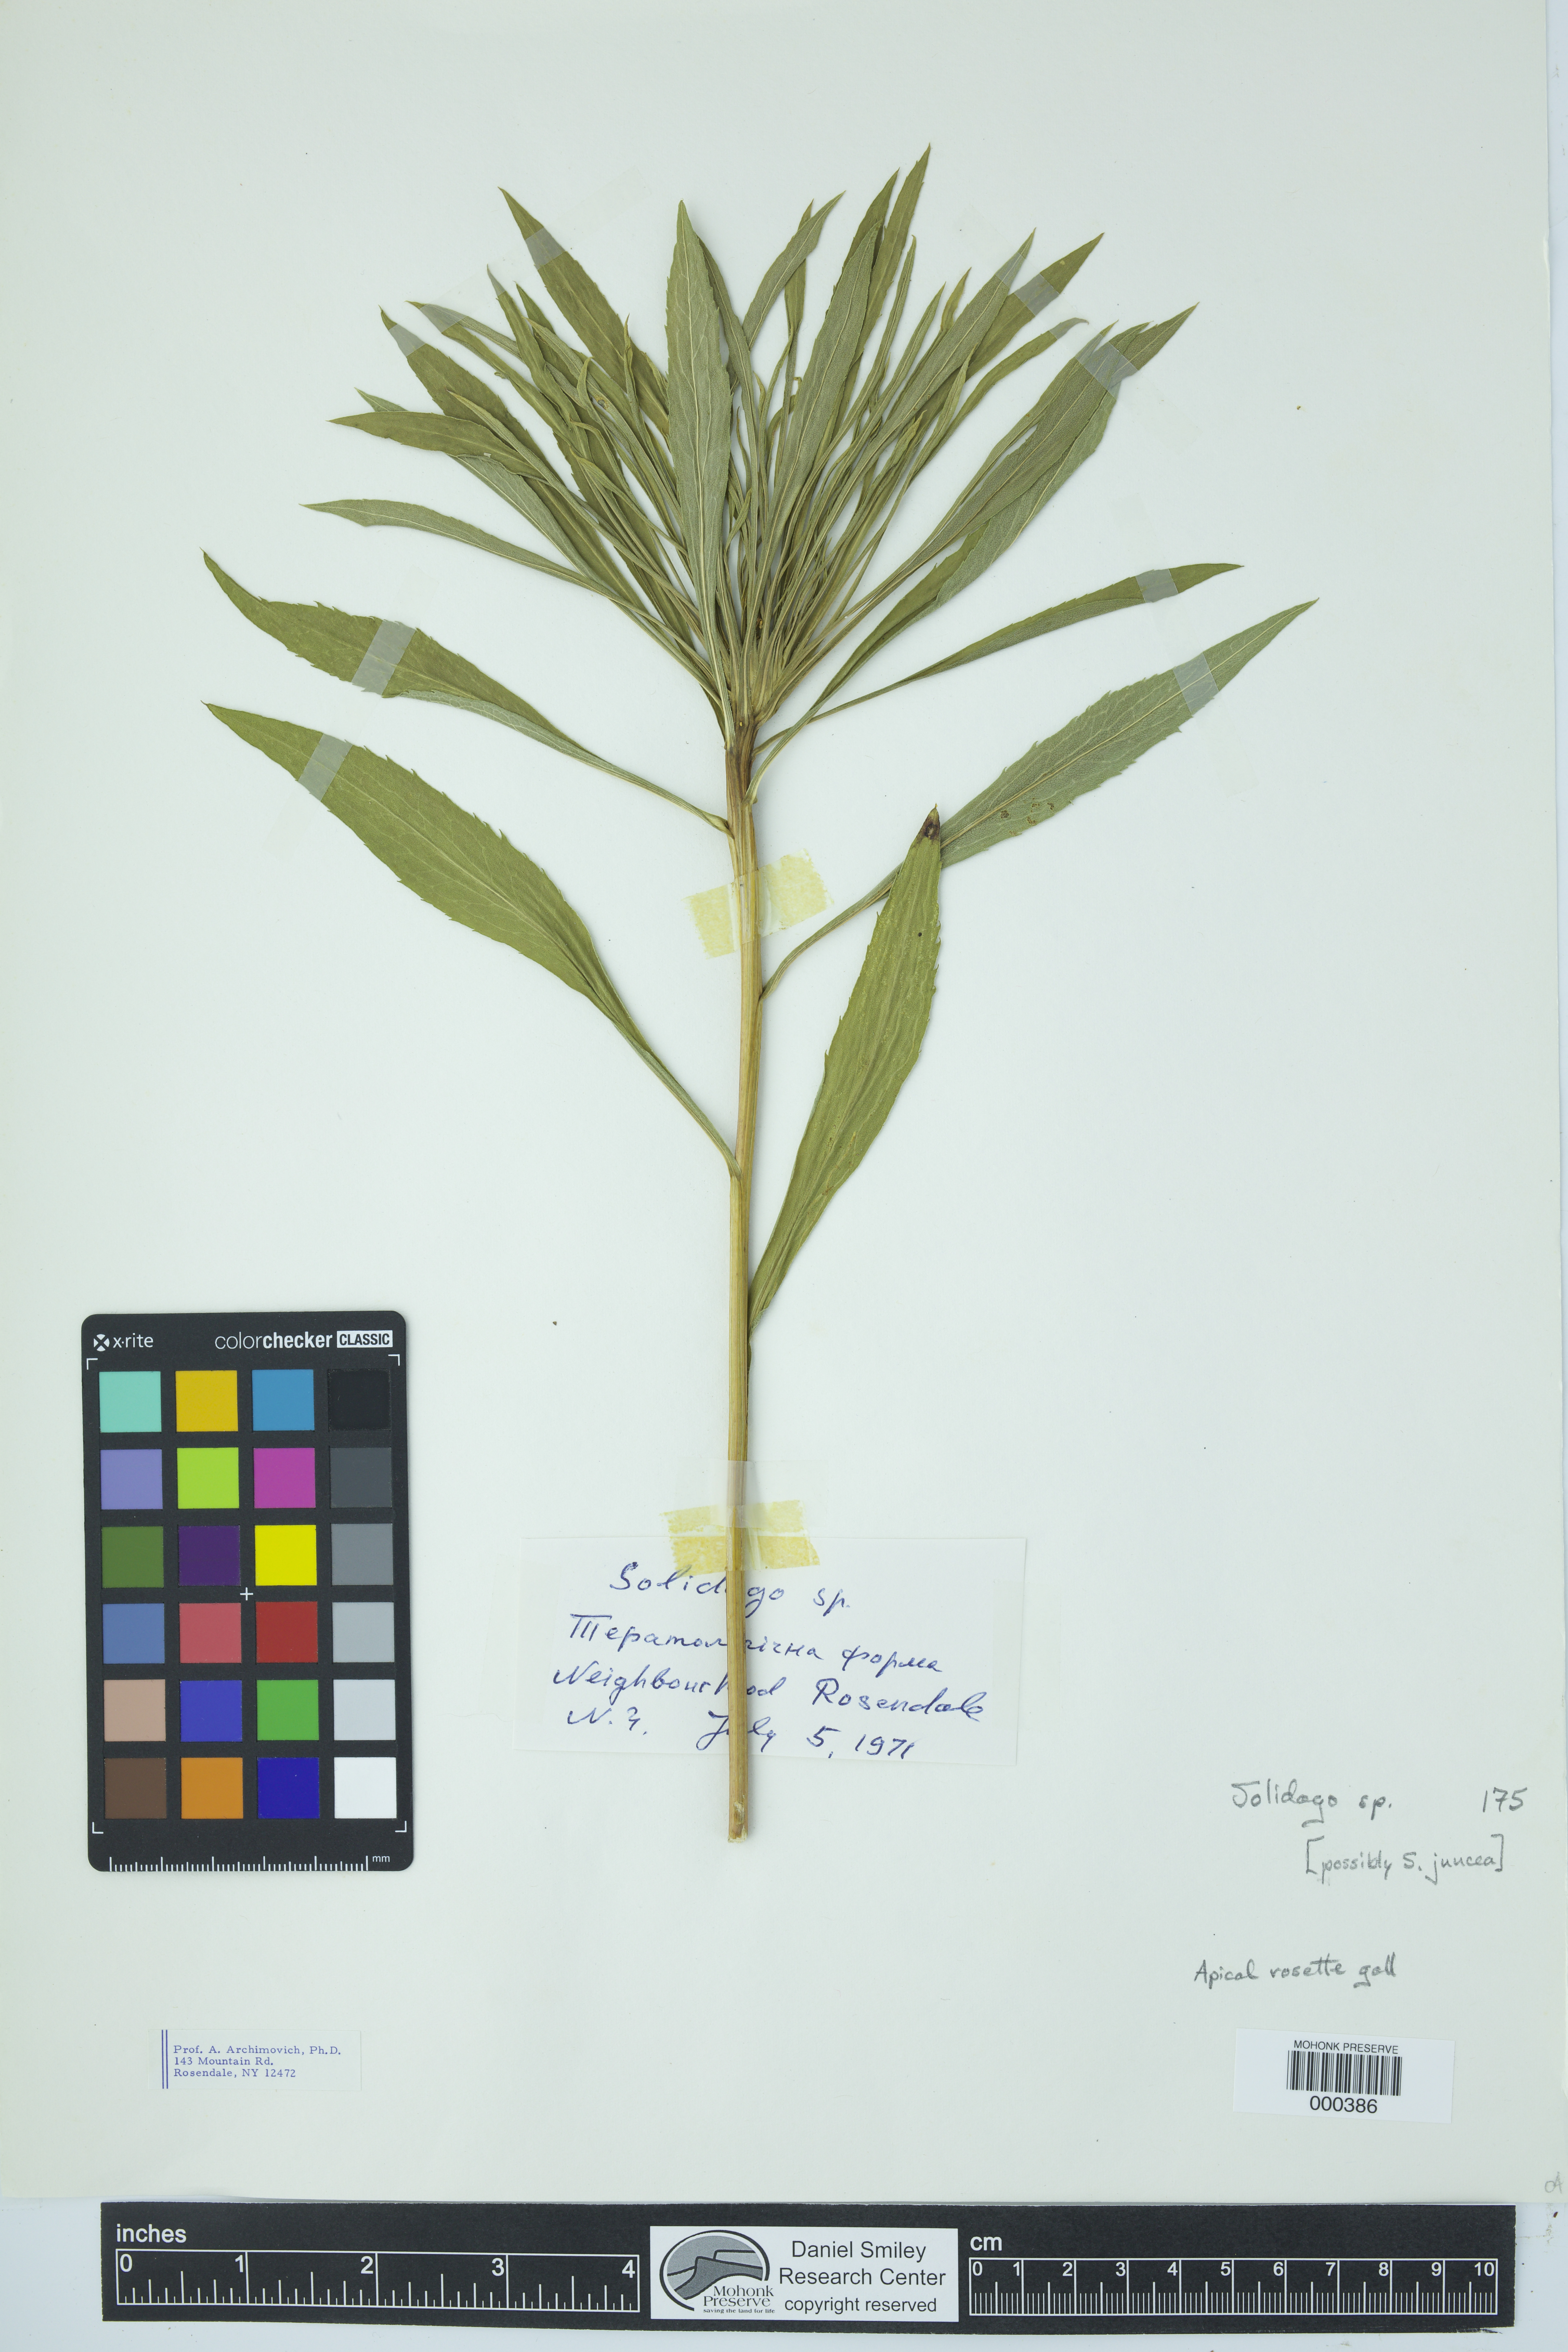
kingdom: Plantae
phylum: Tracheophyta
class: Magnoliopsida
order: Asterales
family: Asteraceae
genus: Solidago
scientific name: Solidago
